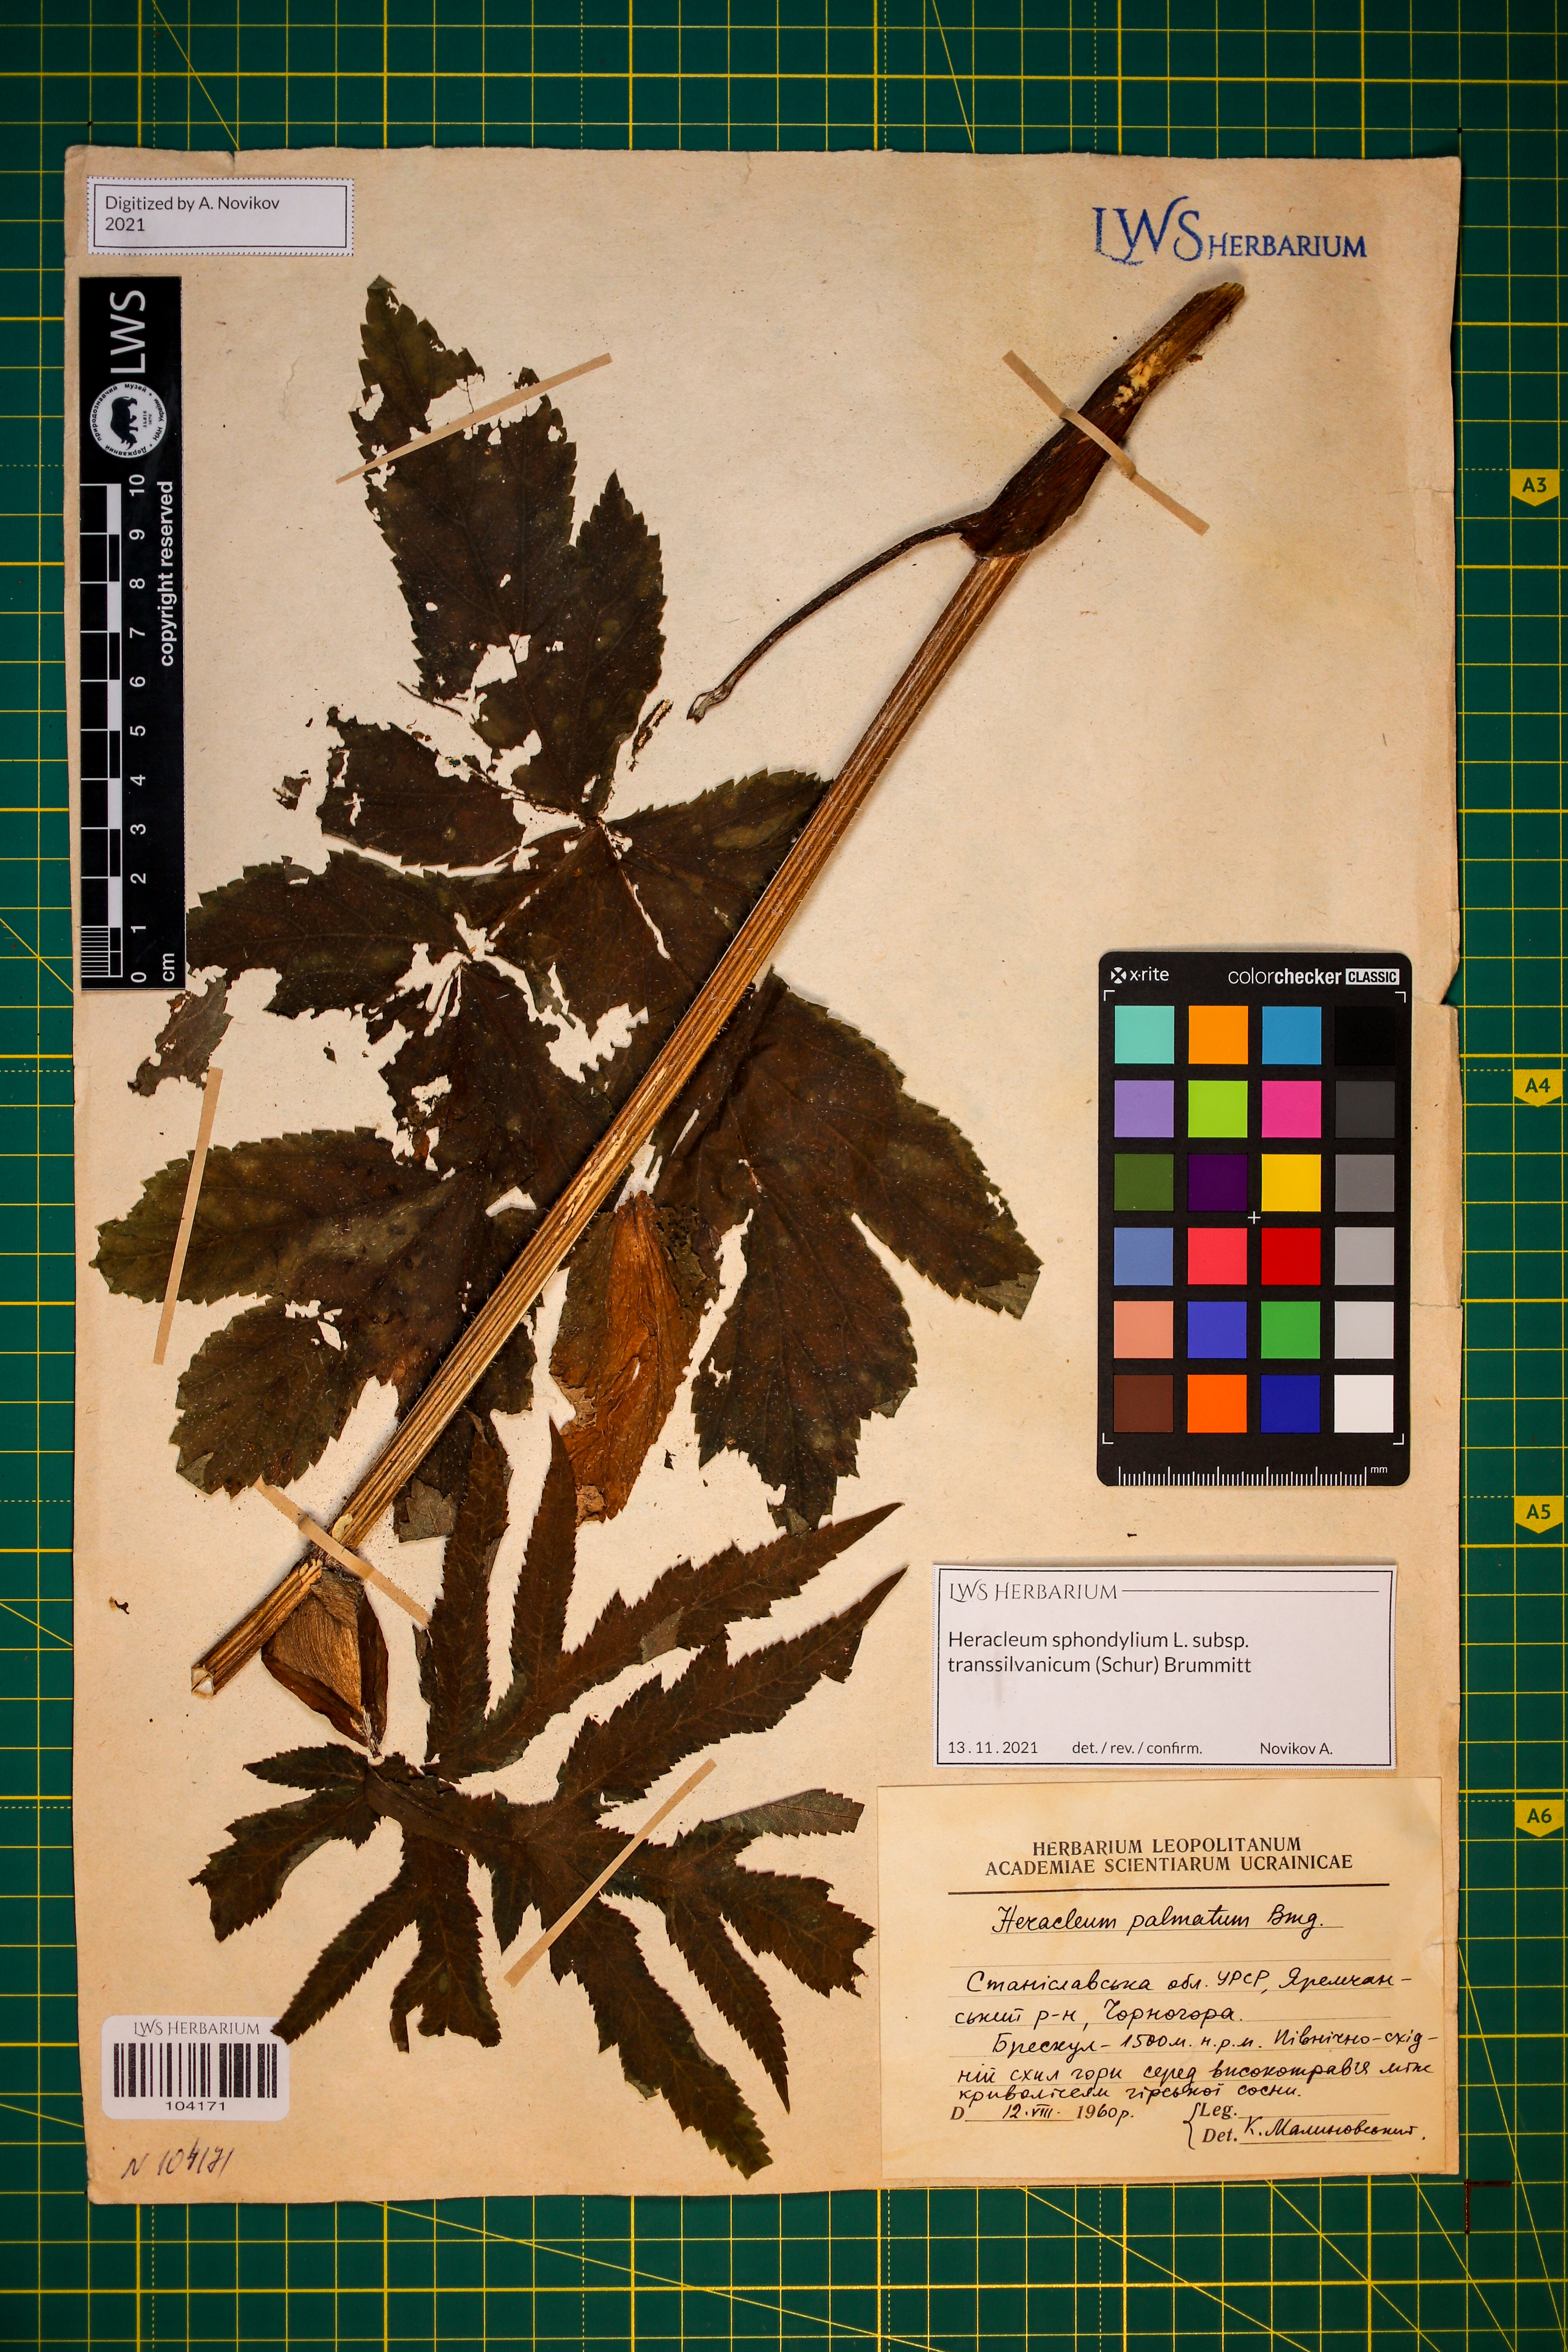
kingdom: Plantae
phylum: Tracheophyta
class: Magnoliopsida
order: Apiales
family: Apiaceae
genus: Heracleum
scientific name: Heracleum sphondylium
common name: Hogweed
